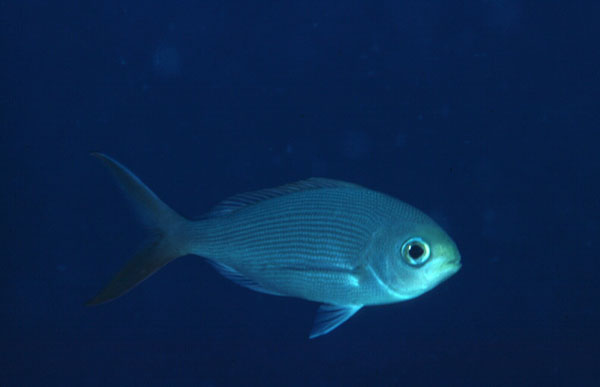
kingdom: Animalia
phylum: Chordata
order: Perciformes
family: Lutjanidae
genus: Paracaesio
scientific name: Paracaesio sordida
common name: Blue snapper
